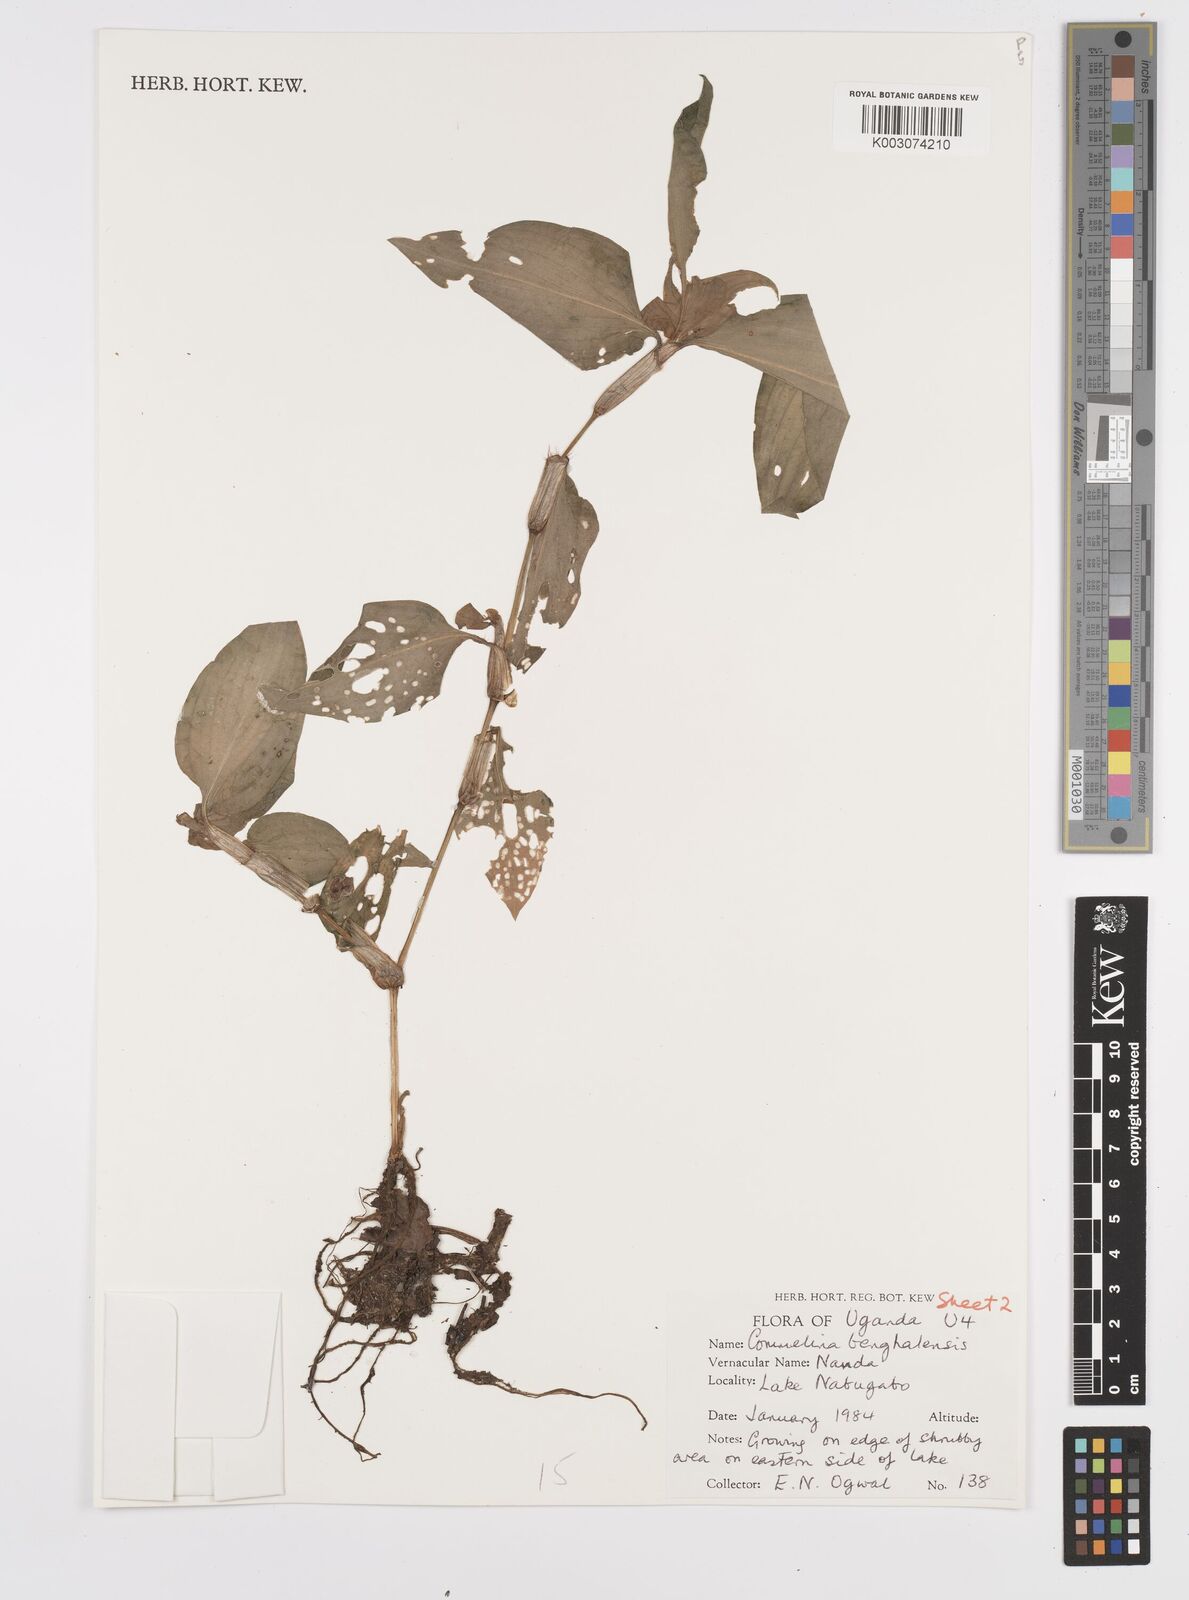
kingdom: Plantae
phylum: Tracheophyta
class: Liliopsida
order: Commelinales
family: Commelinaceae
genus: Commelina
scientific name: Commelina benghalensis
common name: Jio
